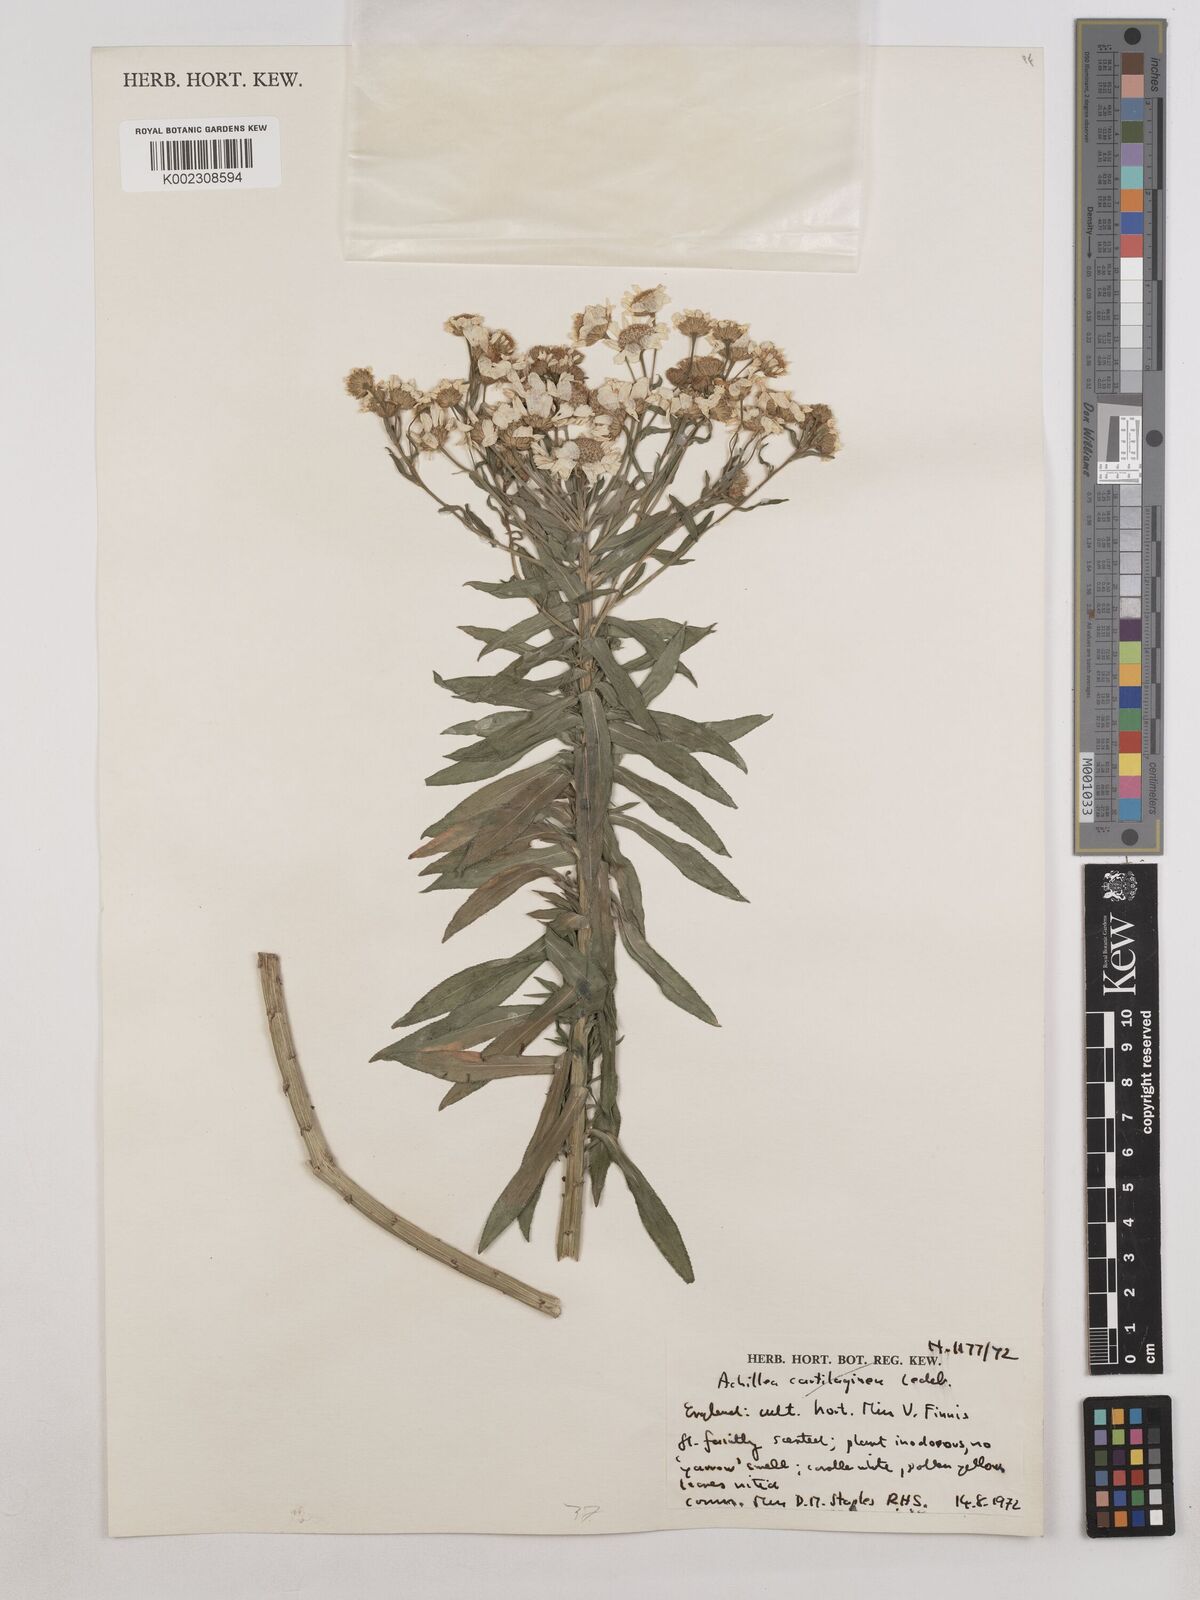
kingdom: Plantae
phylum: Tracheophyta
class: Magnoliopsida
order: Asterales
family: Asteraceae
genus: Achillea
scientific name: Achillea ptarmica
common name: Sneezeweed
